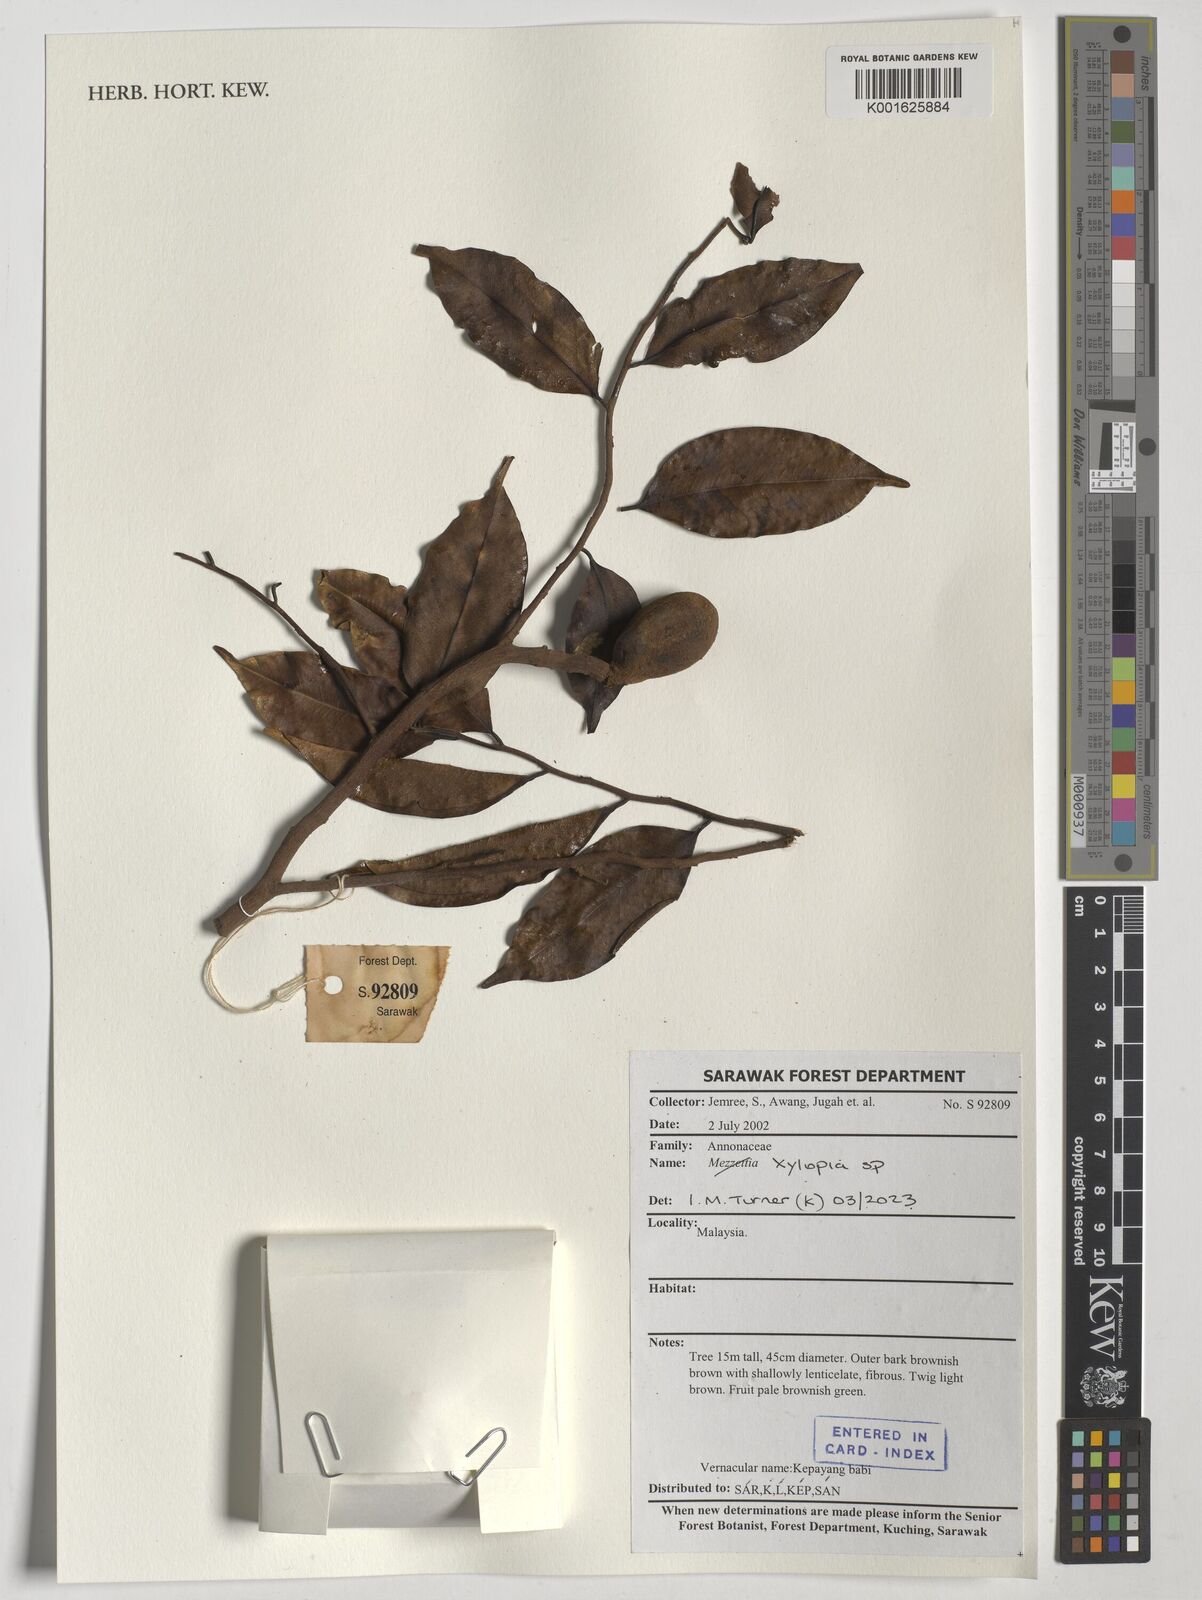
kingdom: Plantae
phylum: Tracheophyta
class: Magnoliopsida
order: Magnoliales
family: Annonaceae
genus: Xylopia
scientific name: Xylopia
